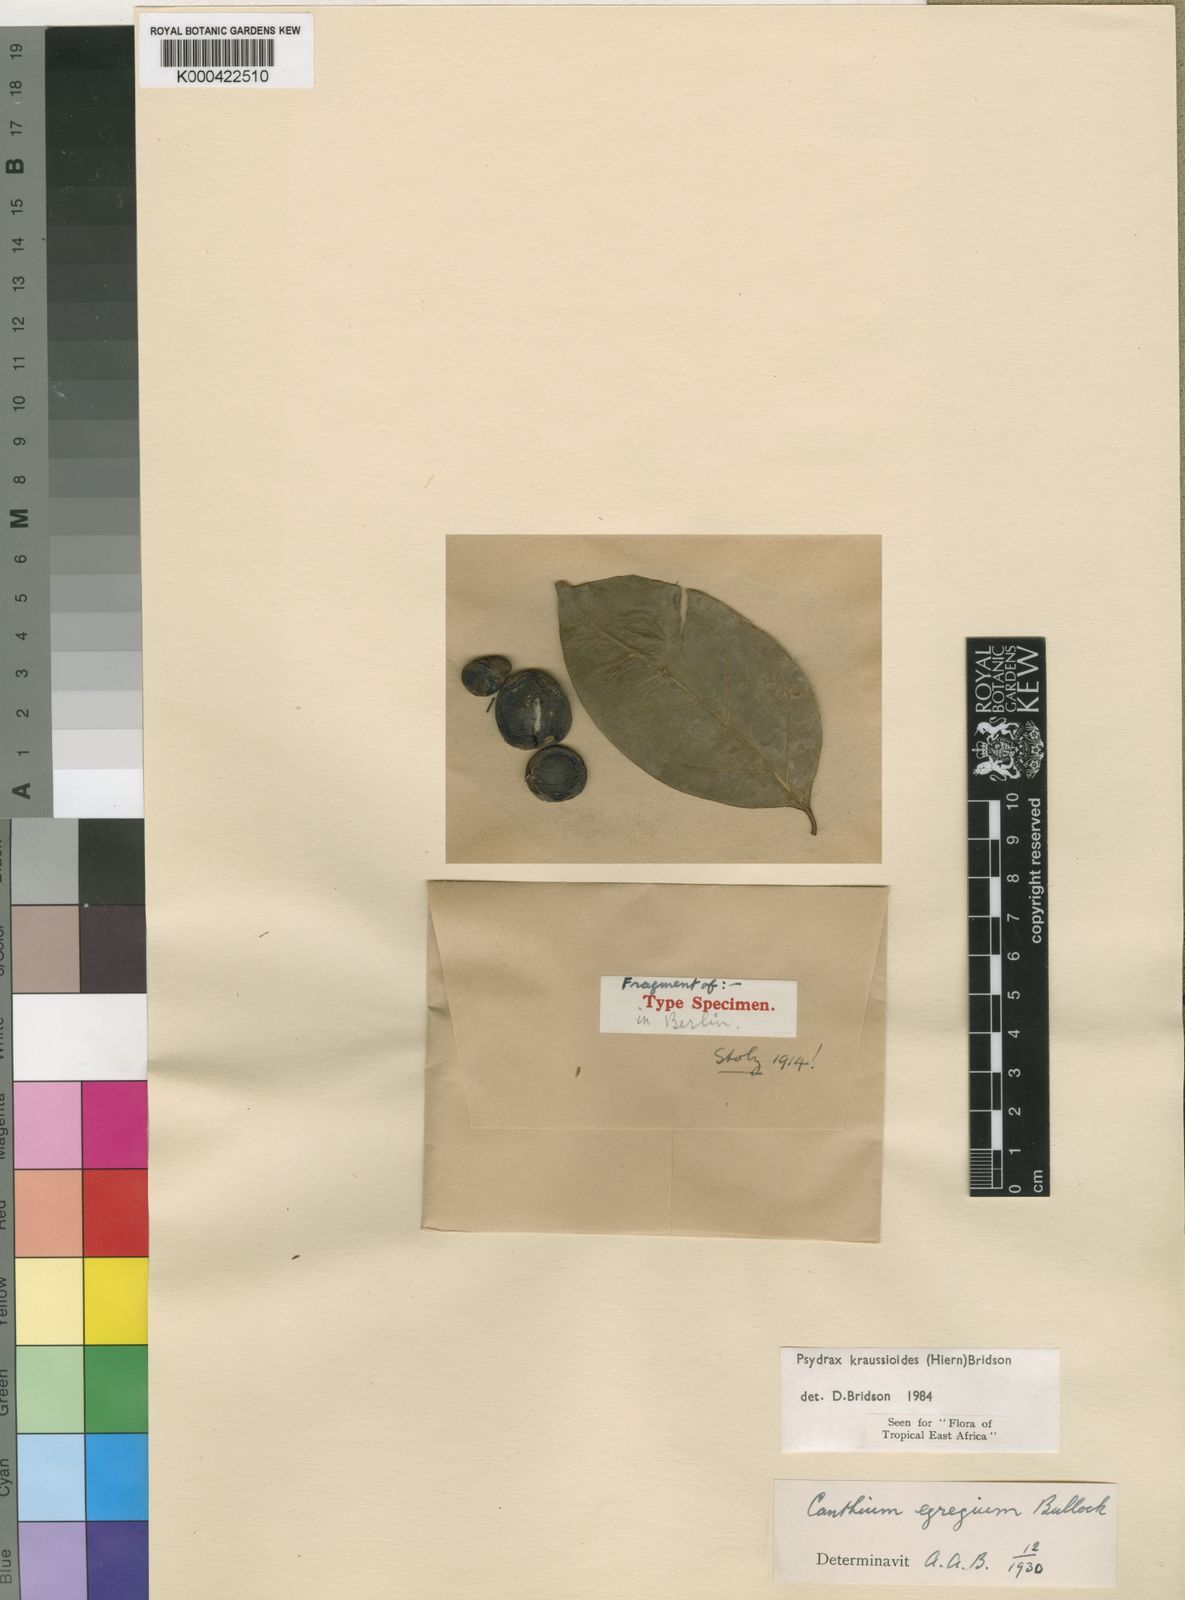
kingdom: Plantae
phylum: Tracheophyta
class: Magnoliopsida
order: Gentianales
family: Rubiaceae
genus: Psydrax
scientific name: Psydrax kraussioides
